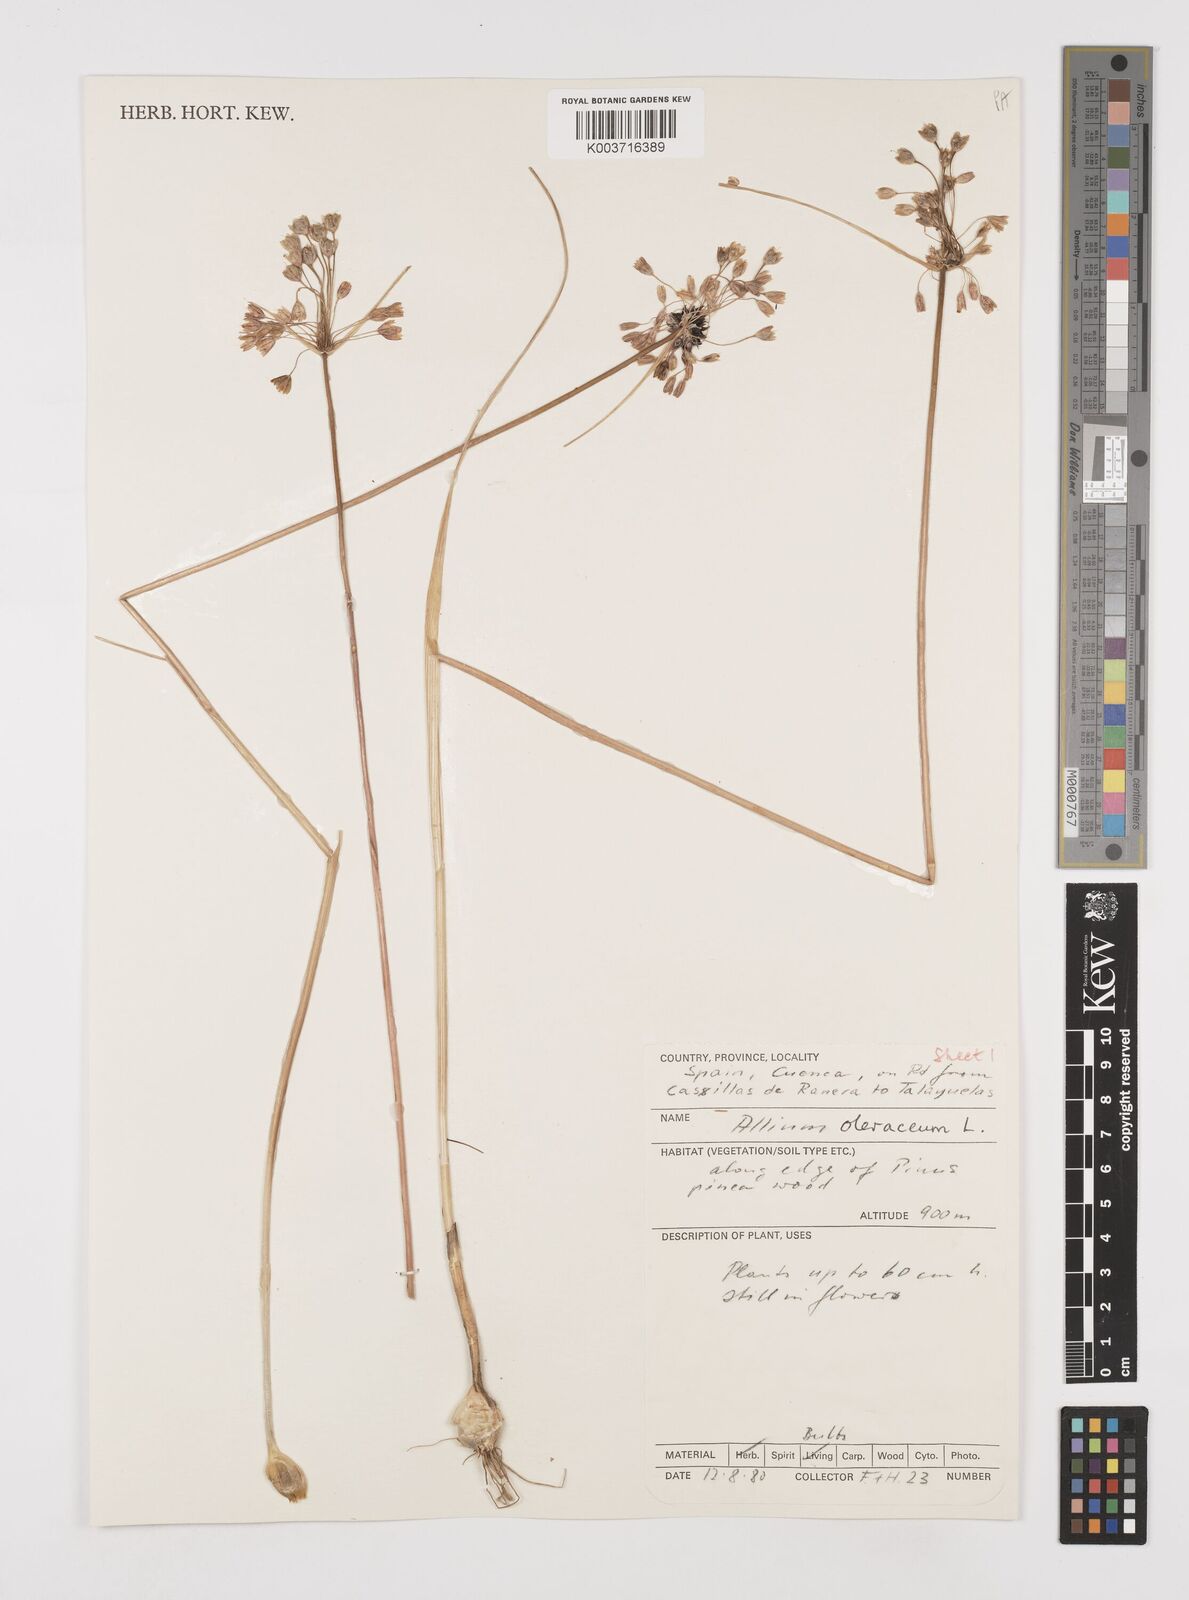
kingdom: Plantae
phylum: Tracheophyta
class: Liliopsida
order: Asparagales
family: Amaryllidaceae
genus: Allium
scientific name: Allium oleraceum
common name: Field garlic
